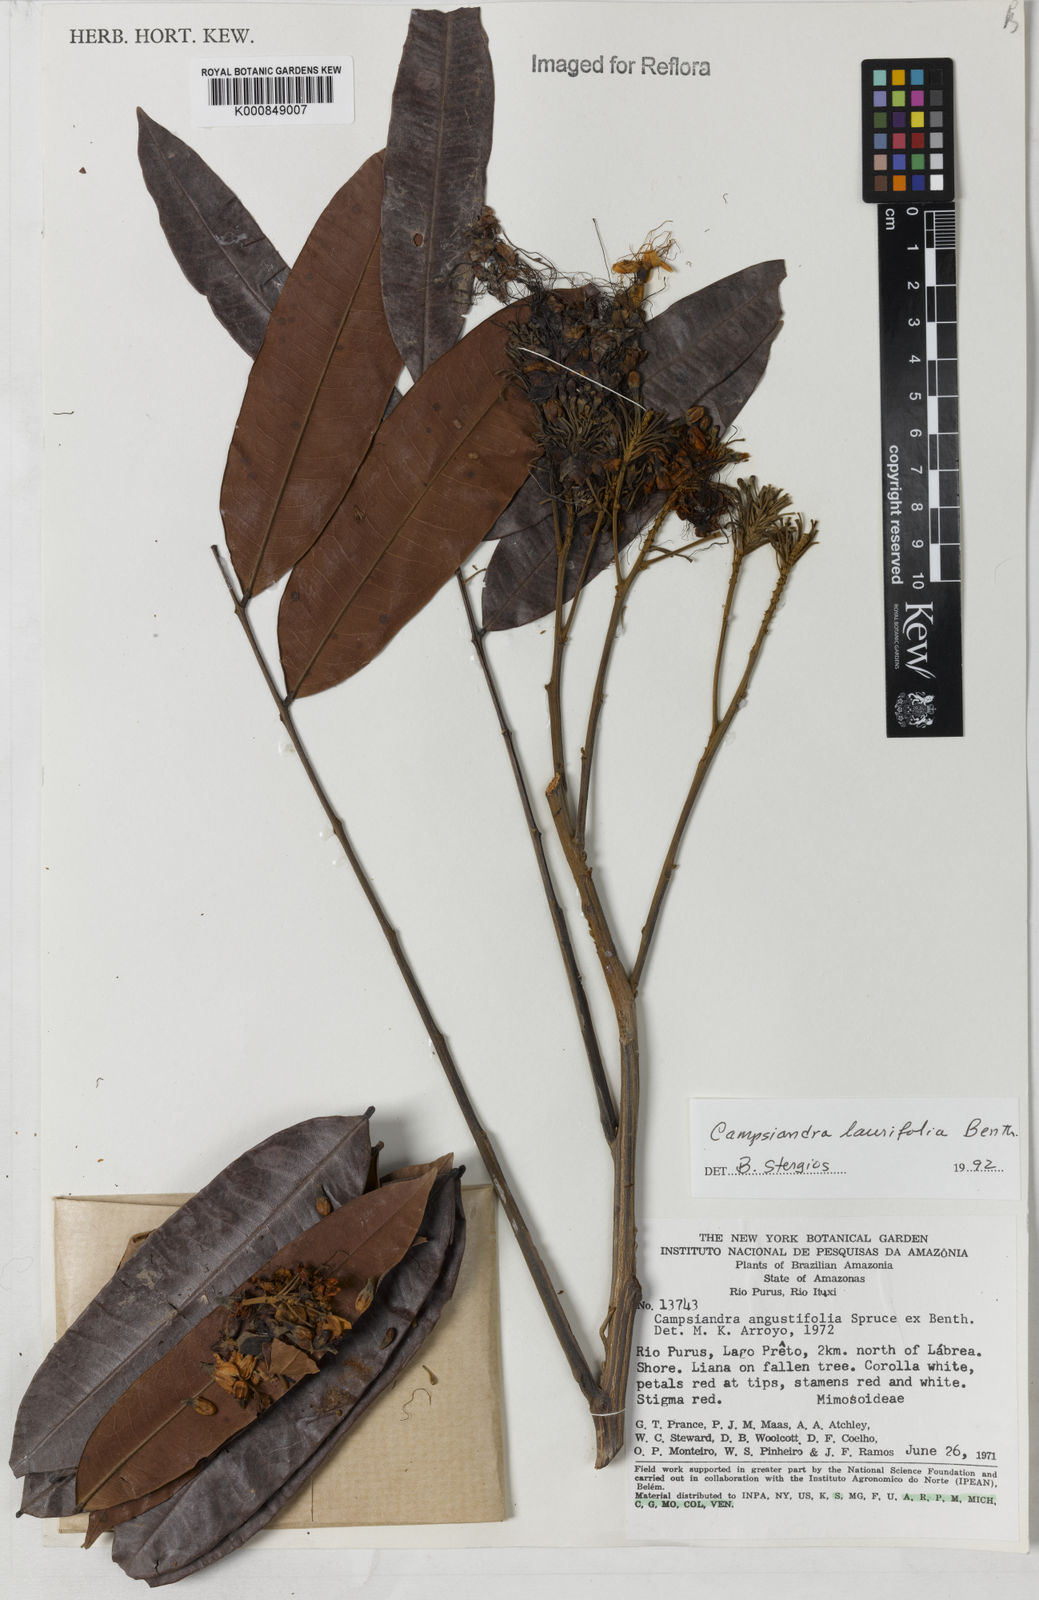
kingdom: Plantae
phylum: Tracheophyta
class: Magnoliopsida
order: Fabales
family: Fabaceae
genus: Campsiandra
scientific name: Campsiandra laurifolia
